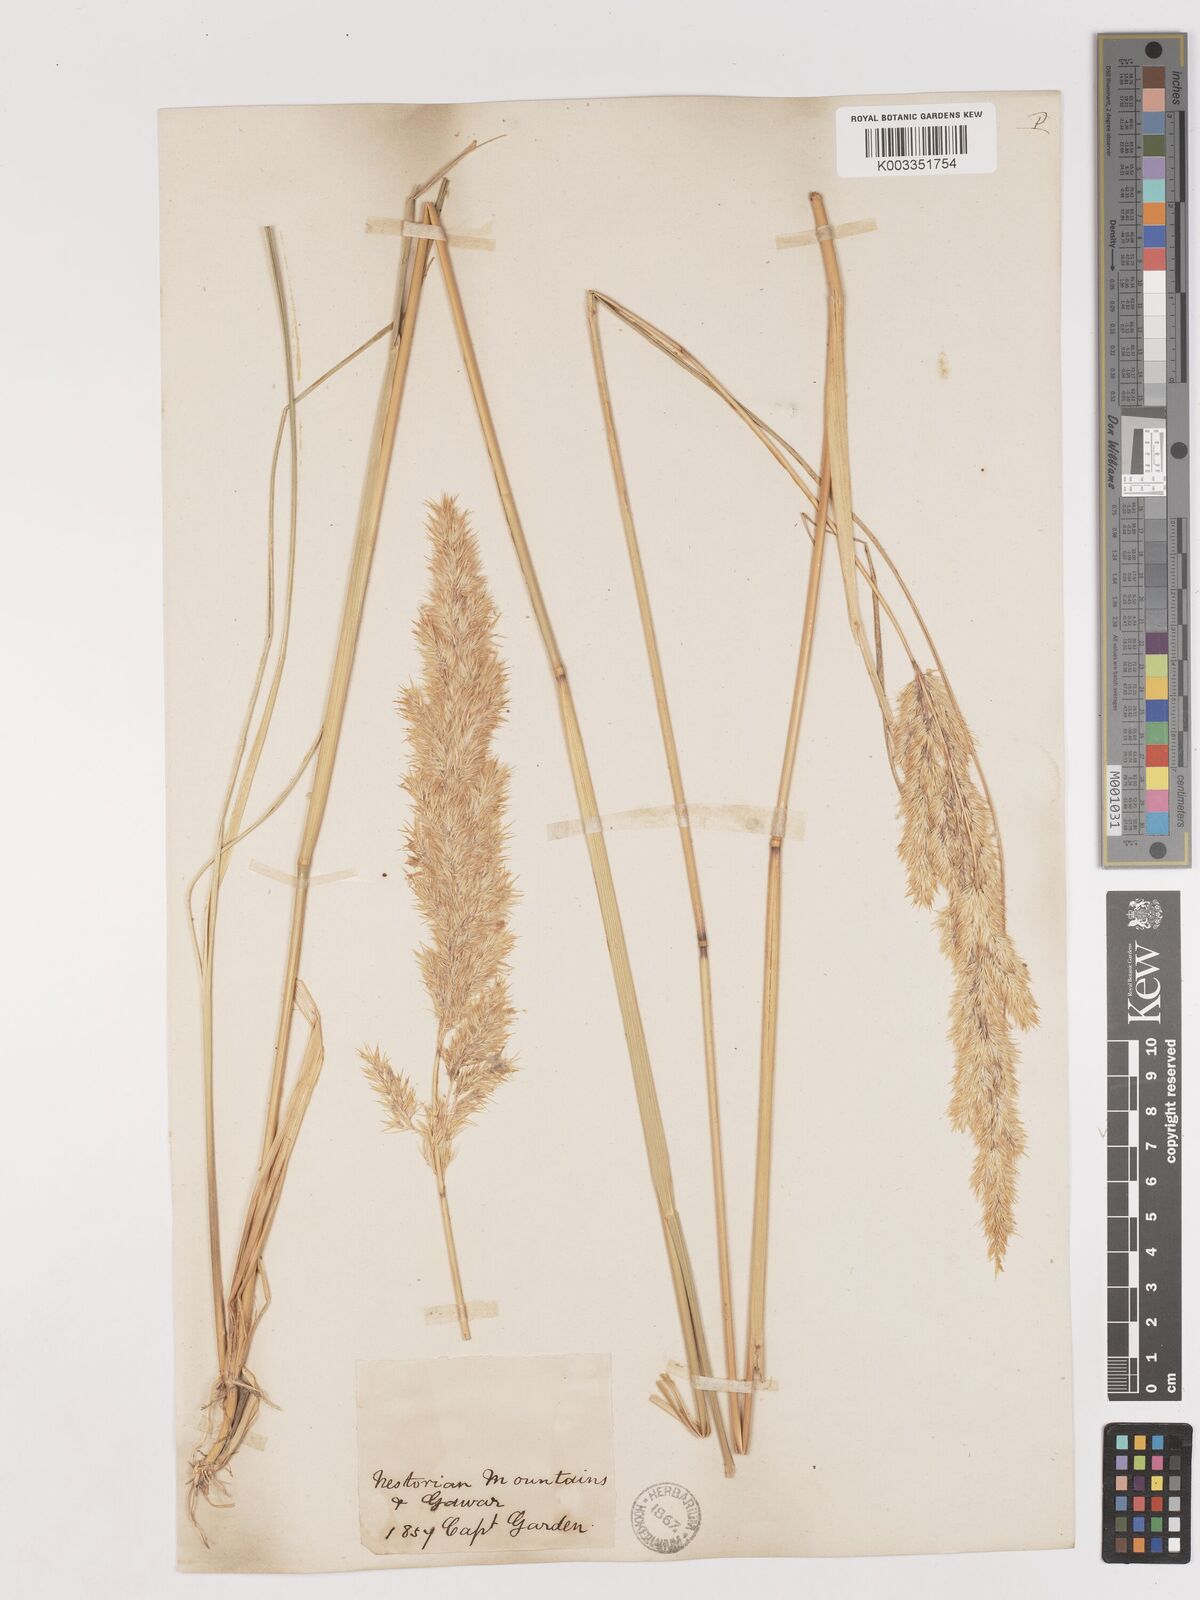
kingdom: Plantae
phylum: Tracheophyta
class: Liliopsida
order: Poales
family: Poaceae
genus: Calamagrostis
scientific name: Calamagrostis pseudophragmites
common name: Coastal small-reed
